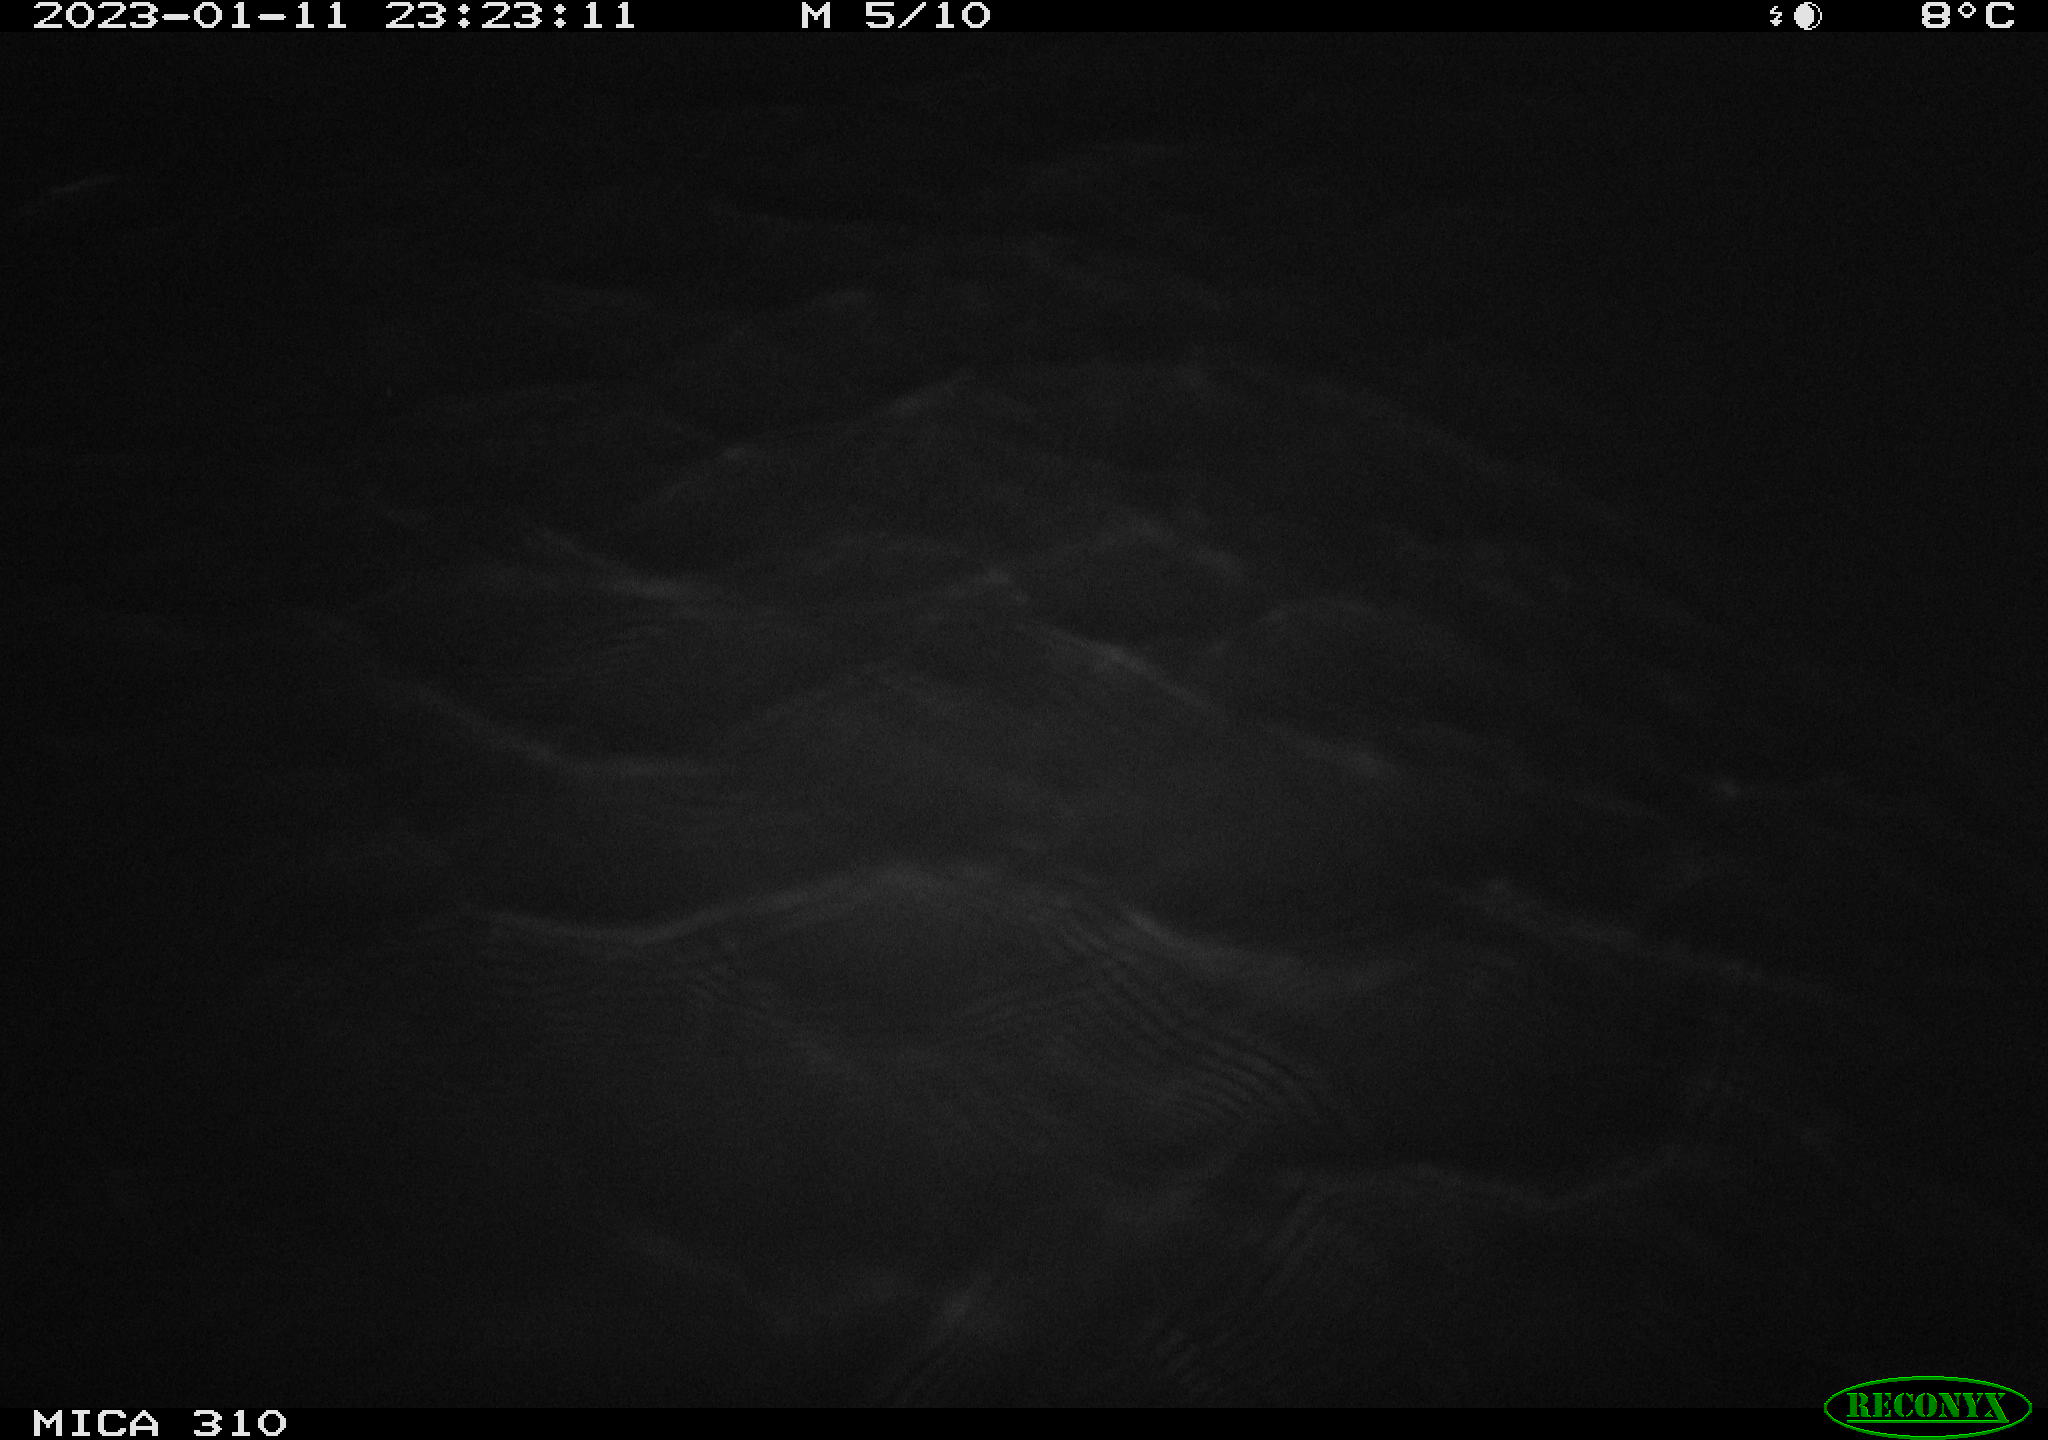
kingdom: Animalia
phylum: Chordata
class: Mammalia
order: Rodentia
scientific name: Rodentia
